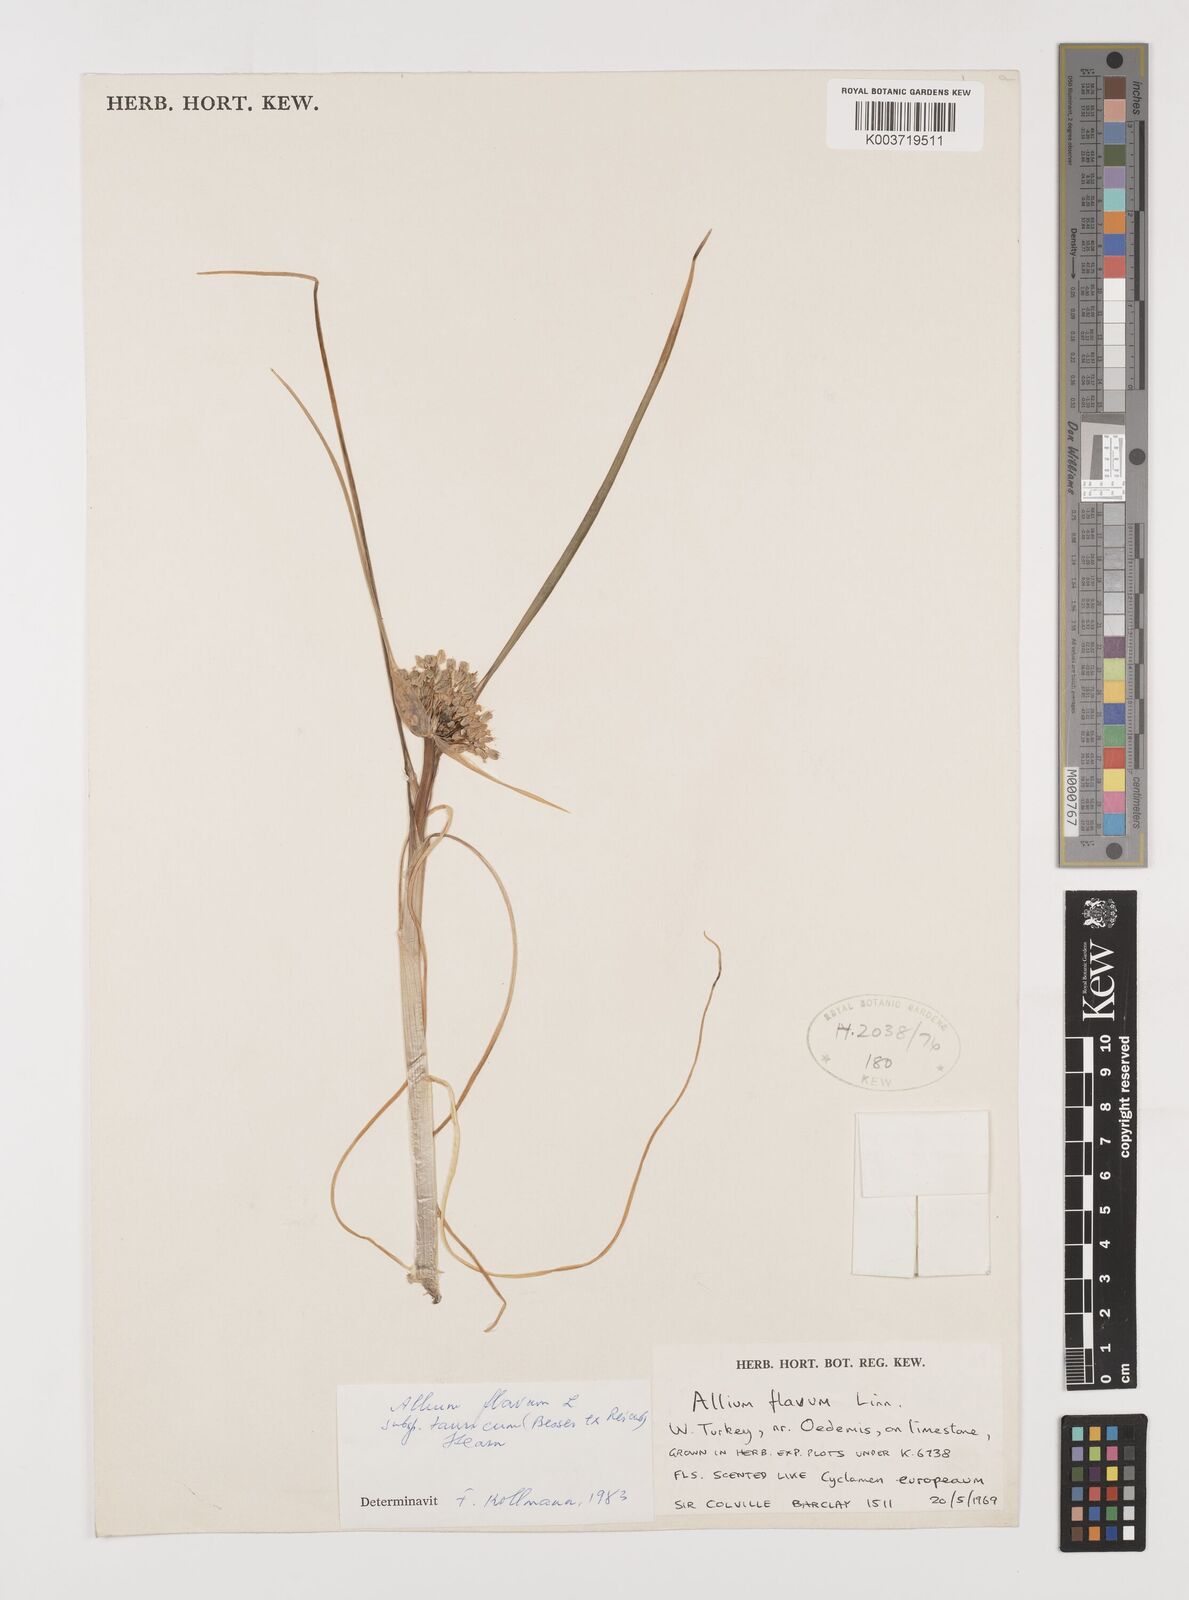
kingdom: Plantae
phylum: Tracheophyta
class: Liliopsida
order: Asparagales
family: Amaryllidaceae
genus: Allium
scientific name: Allium flavum
